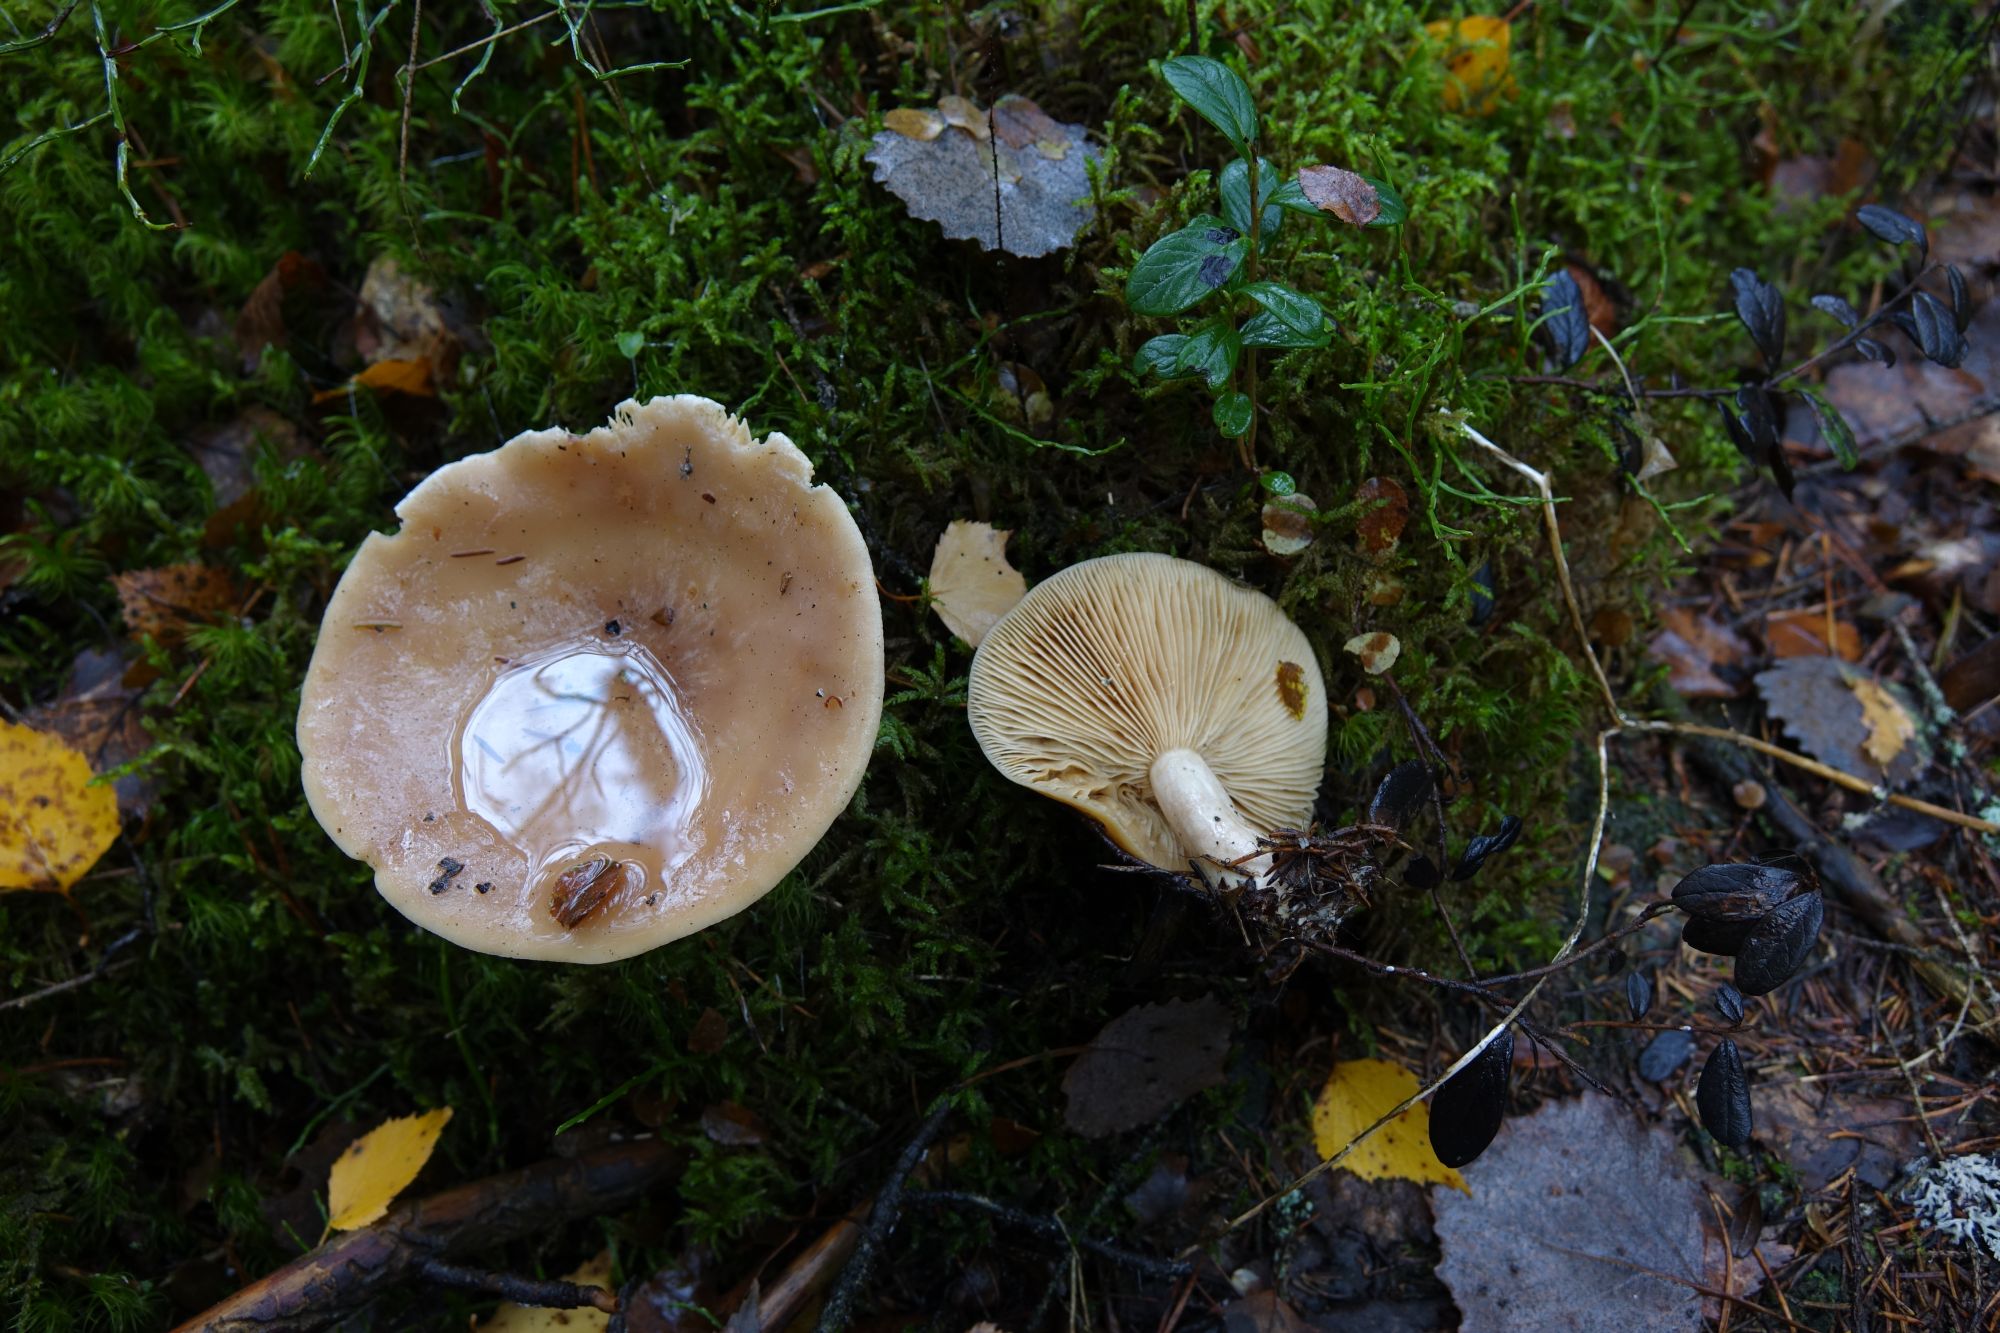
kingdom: Fungi
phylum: Basidiomycota
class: Agaricomycetes
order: Russulales
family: Russulaceae
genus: Lactarius
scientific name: Lactarius utilis
